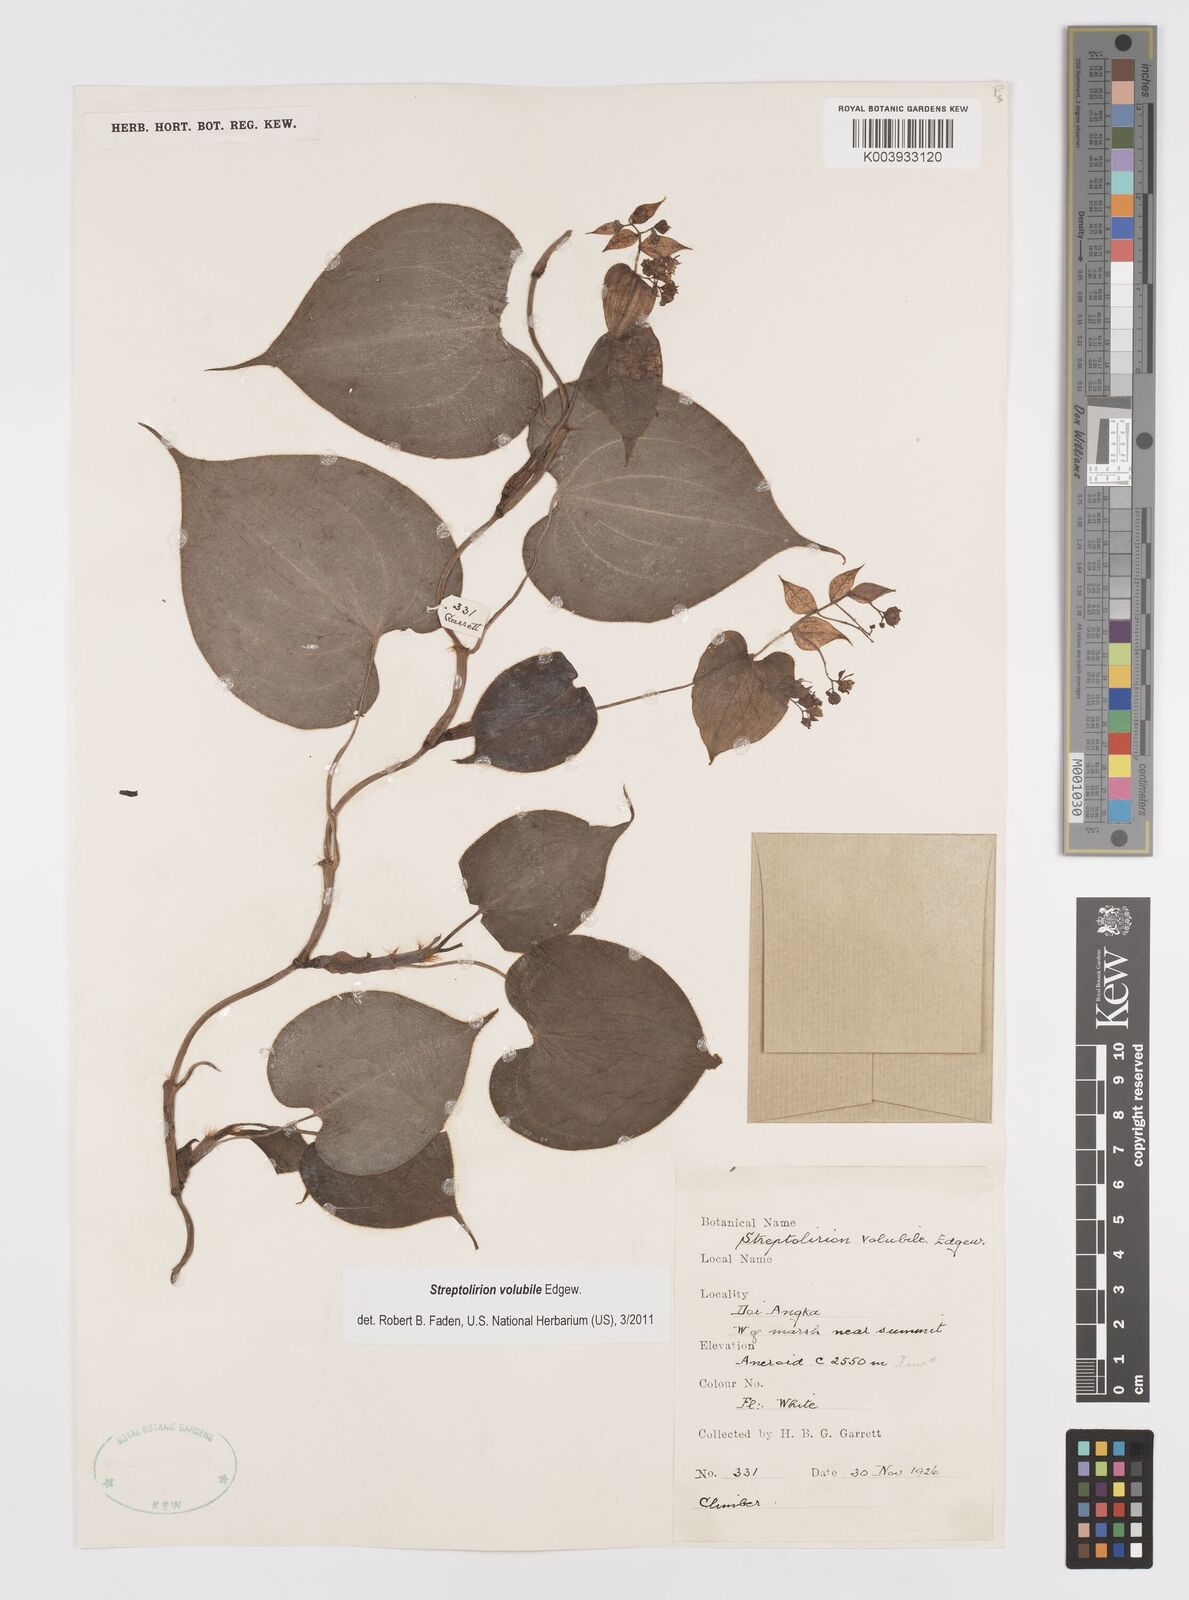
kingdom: Plantae
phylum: Tracheophyta
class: Liliopsida
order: Commelinales
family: Commelinaceae
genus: Streptolirion
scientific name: Streptolirion volubile
